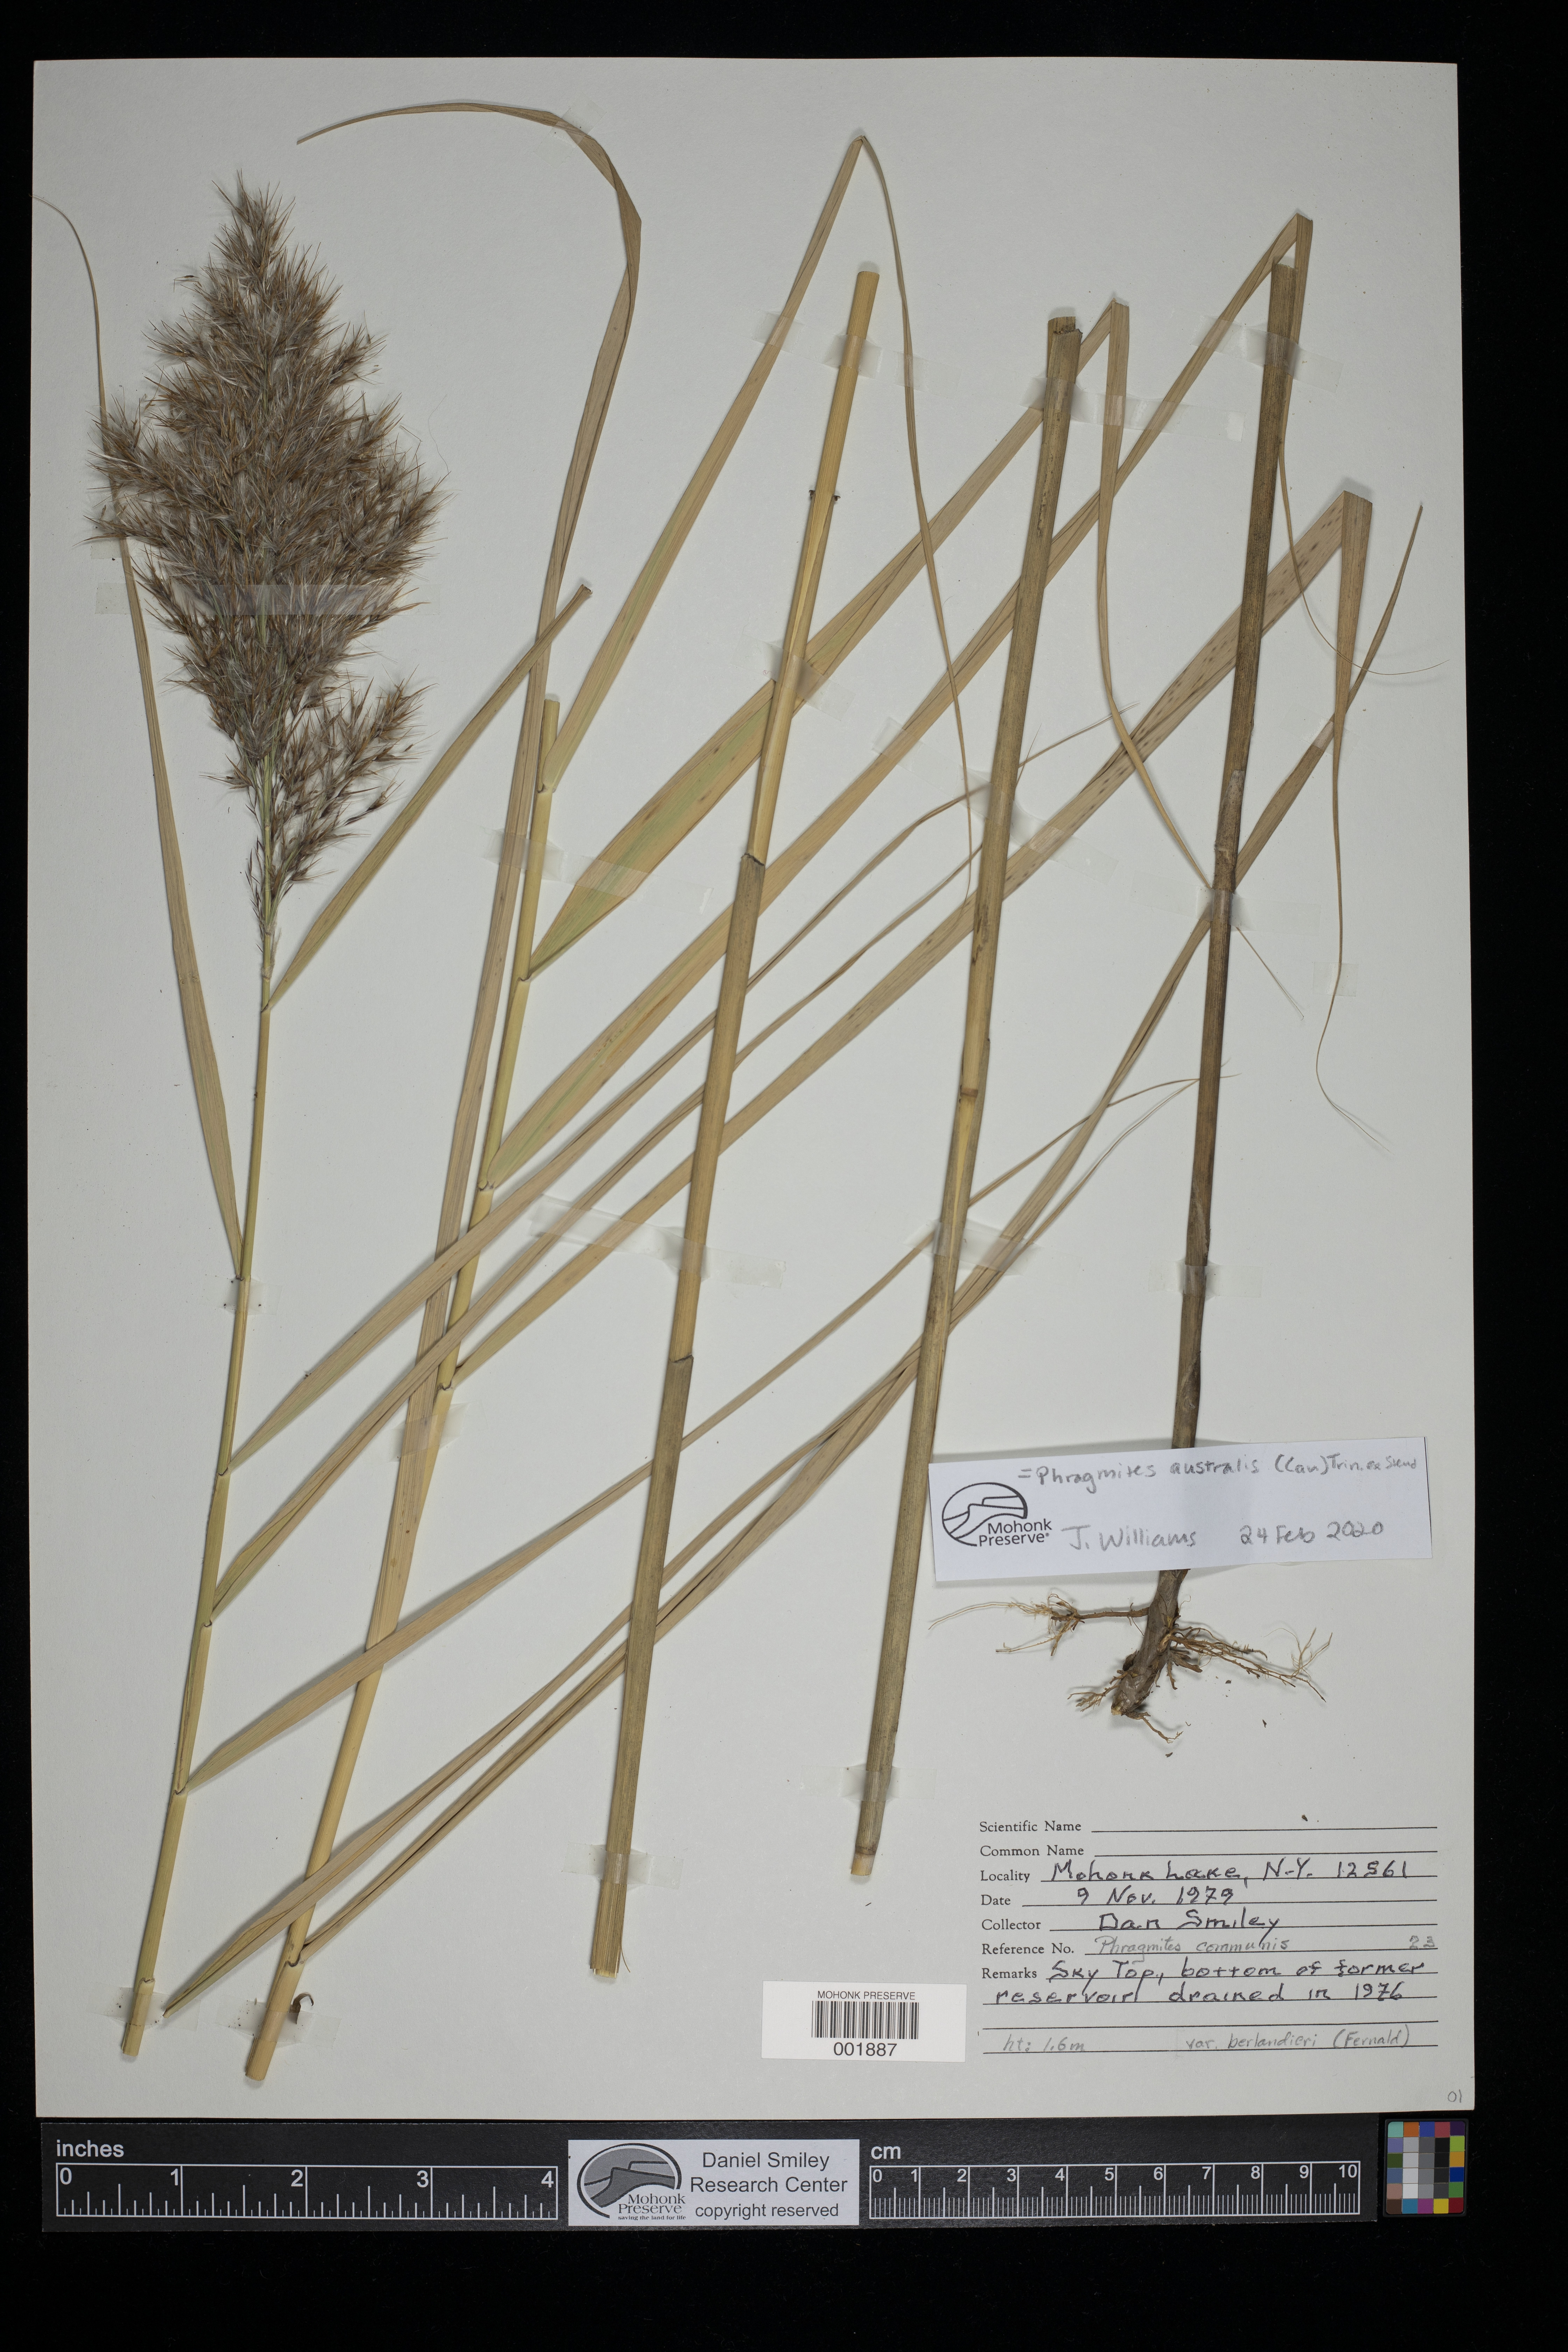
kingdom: Plantae
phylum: Tracheophyta
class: Liliopsida
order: Poales
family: Poaceae
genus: Phragmites
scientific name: Phragmites australis
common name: Common reed
